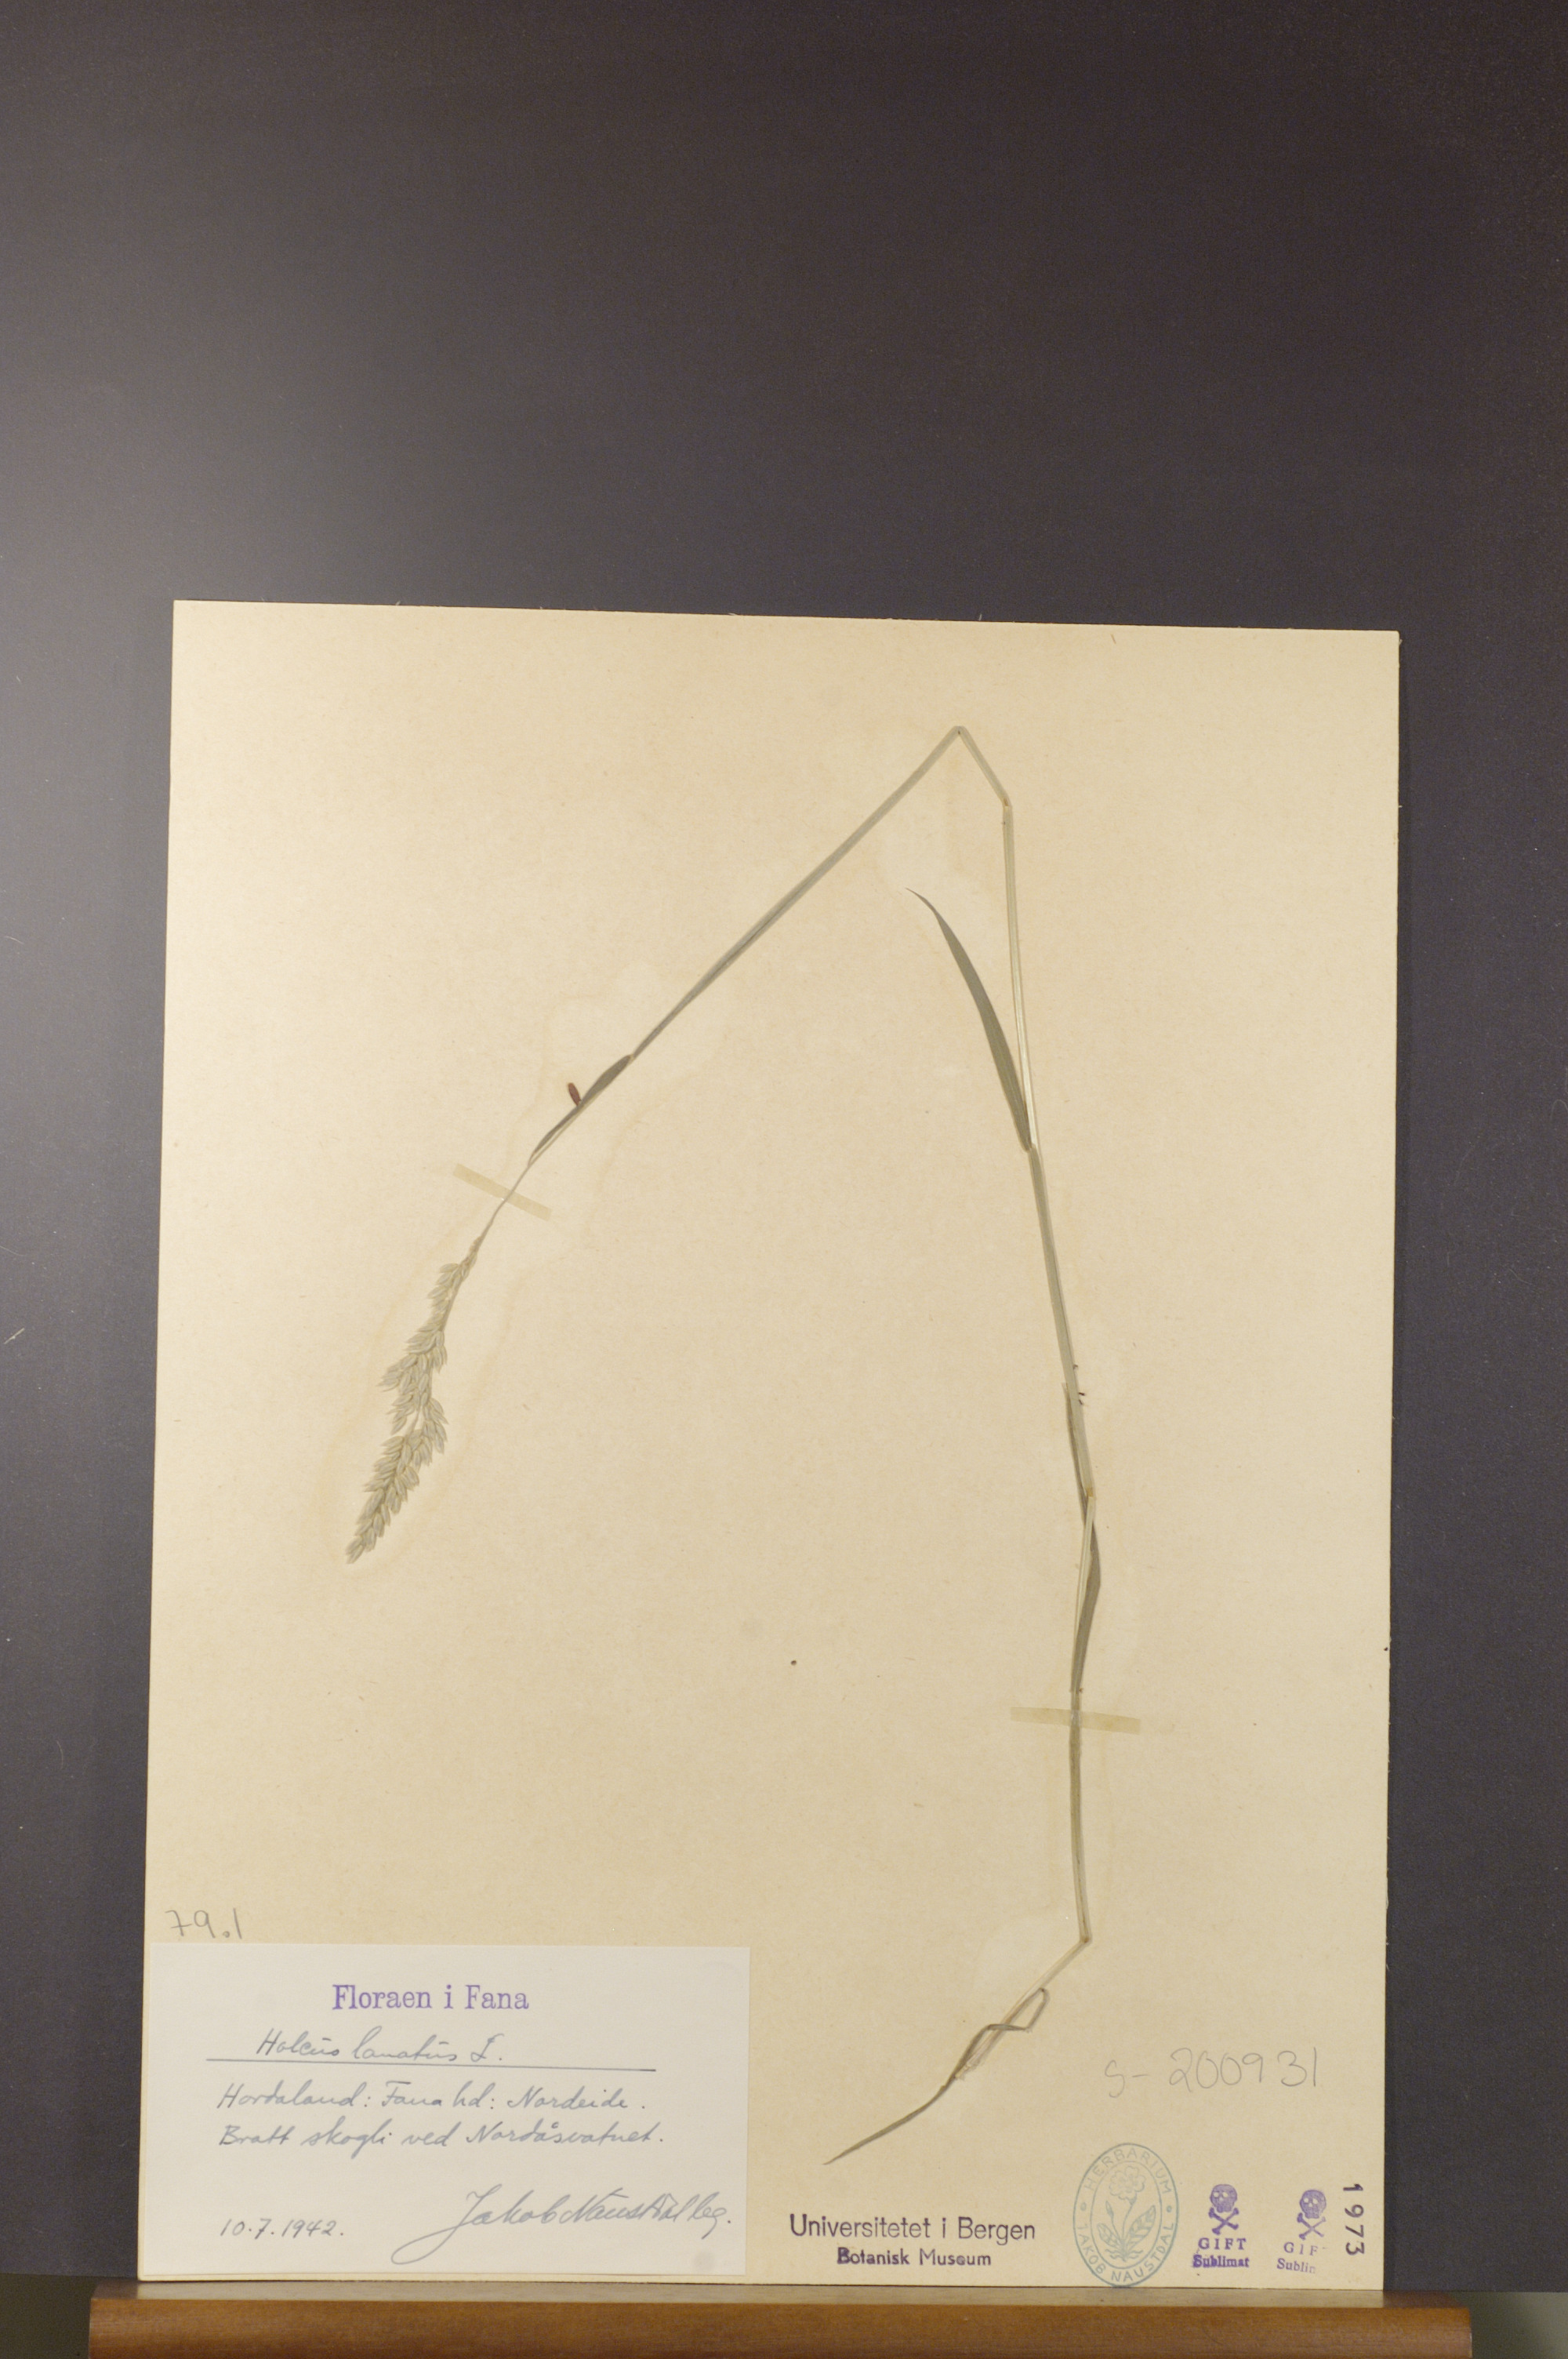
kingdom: Plantae
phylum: Tracheophyta
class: Liliopsida
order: Poales
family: Poaceae
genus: Holcus
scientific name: Holcus lanatus
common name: Yorkshire-fog
